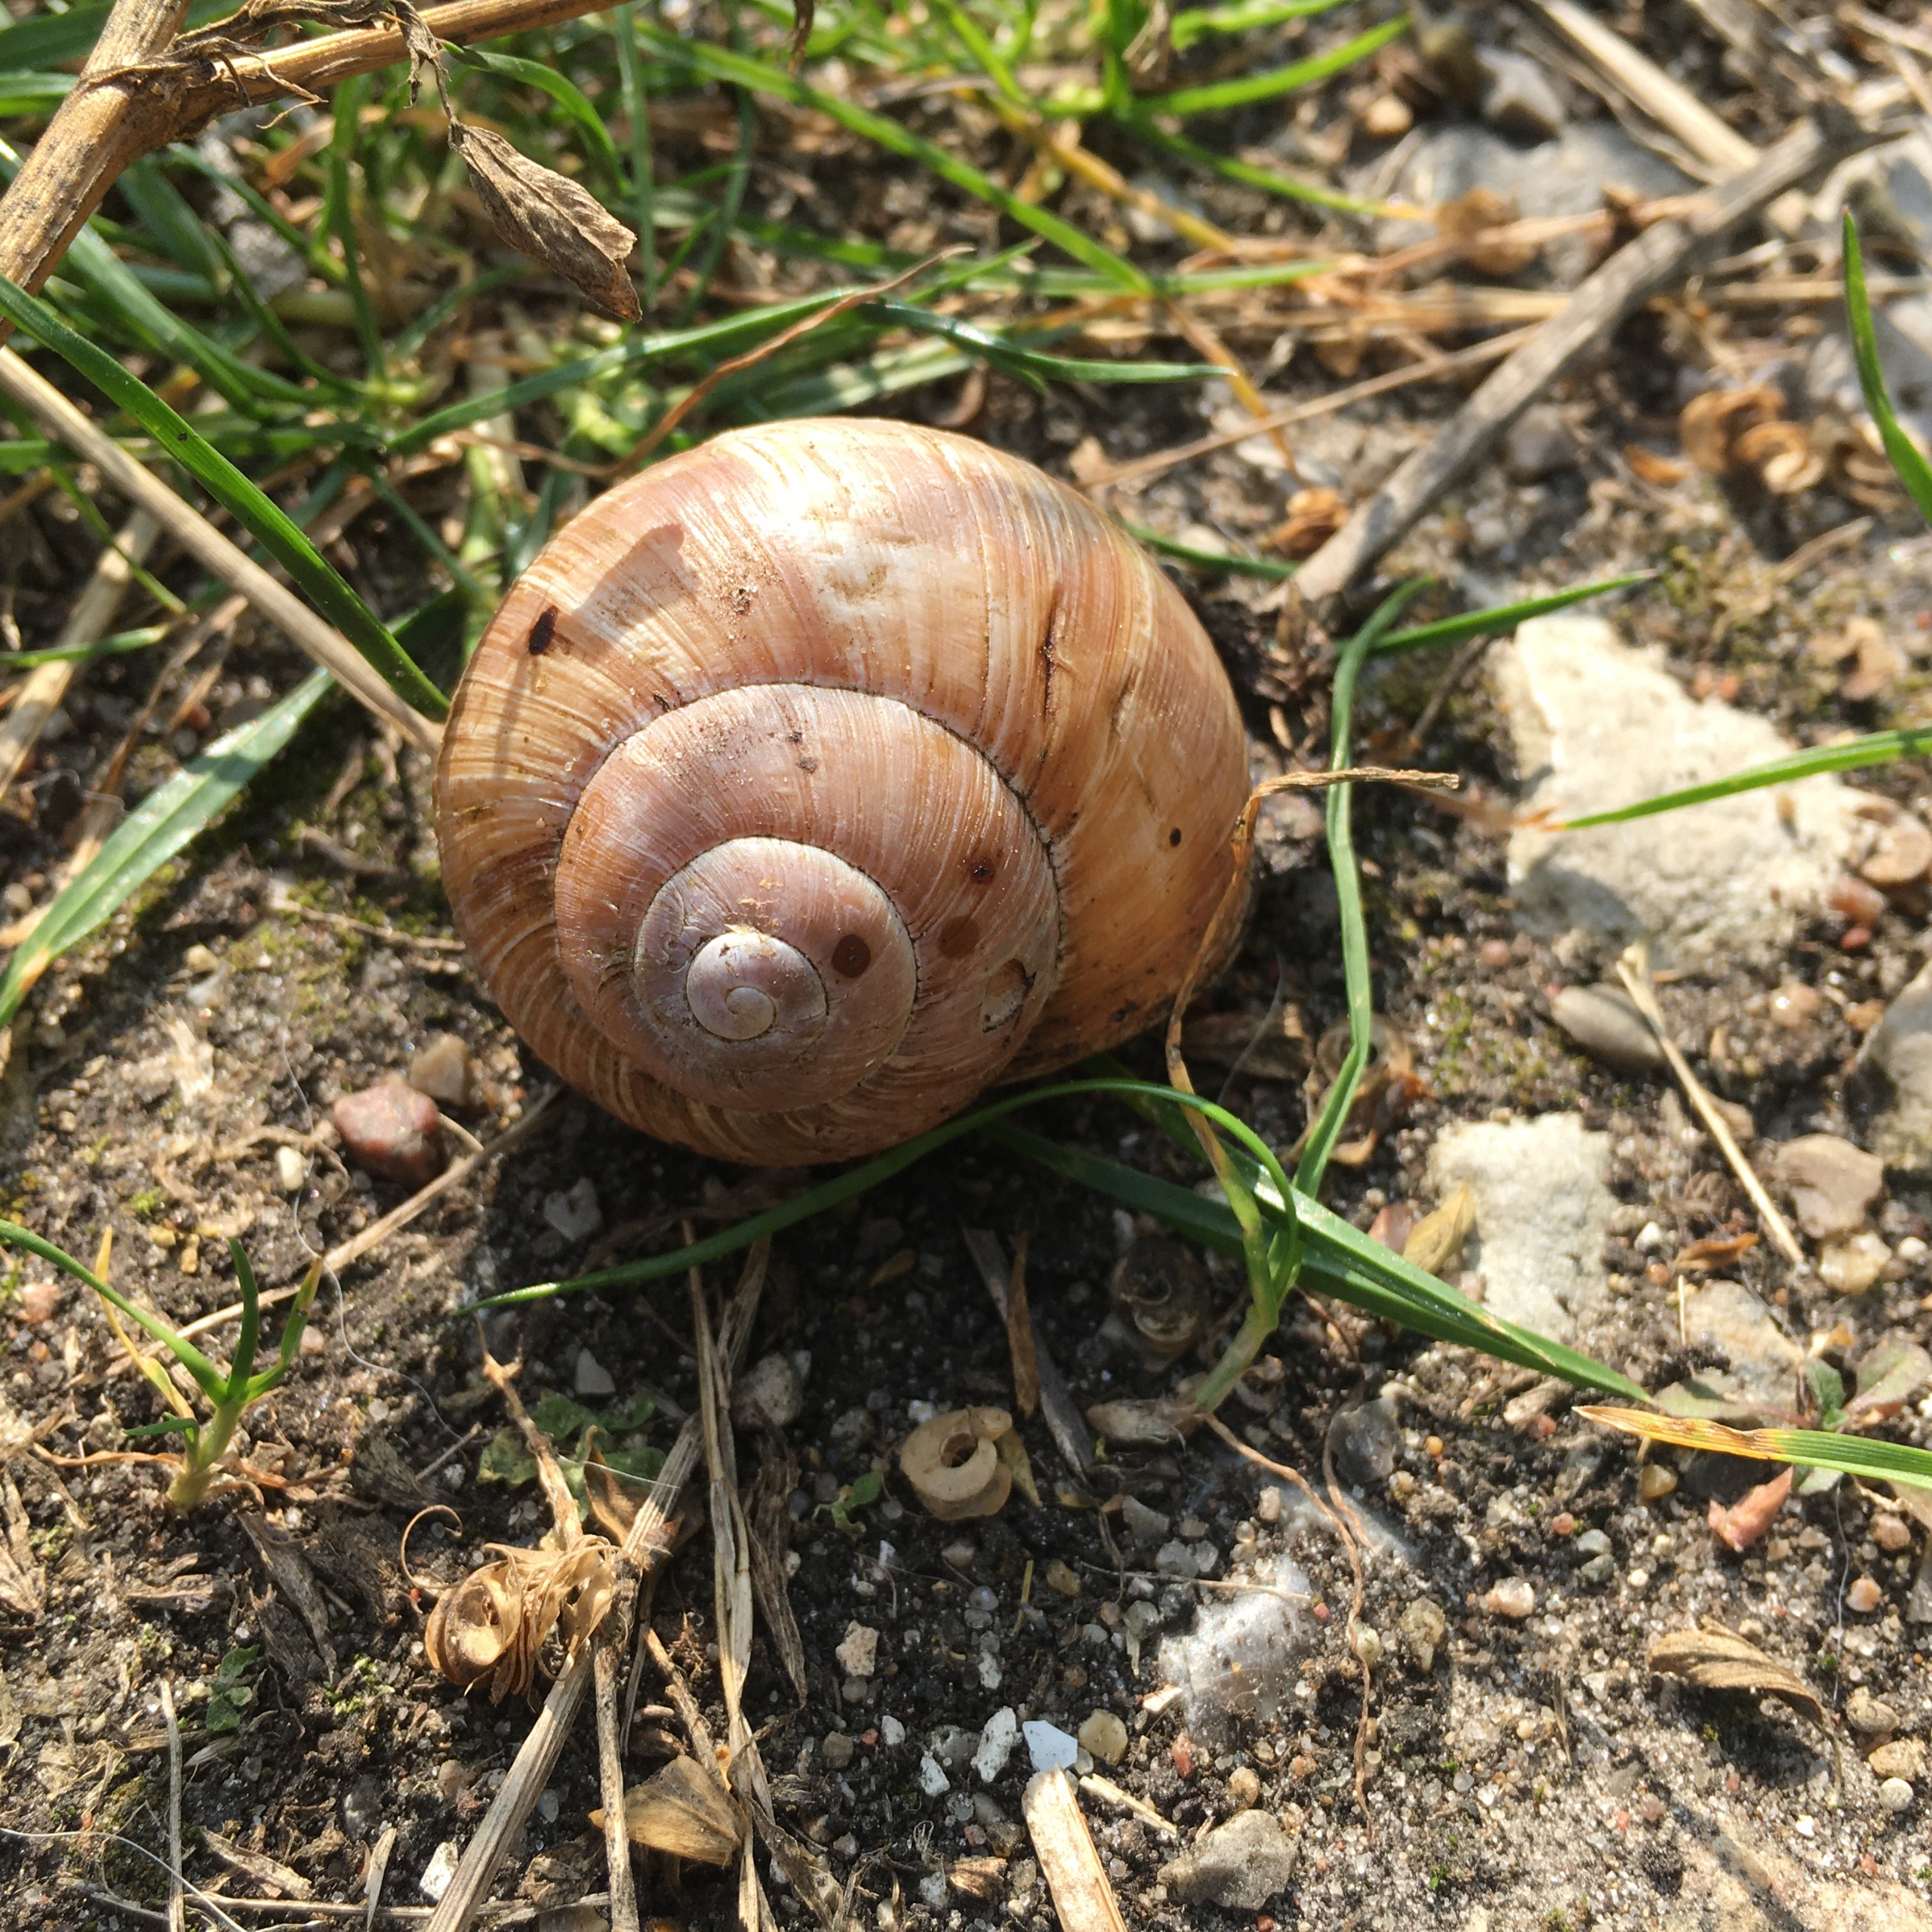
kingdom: Animalia
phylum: Mollusca
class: Gastropoda
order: Stylommatophora
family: Helicidae
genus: Helix
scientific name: Helix pomatia
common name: Vinbjergsnegl
